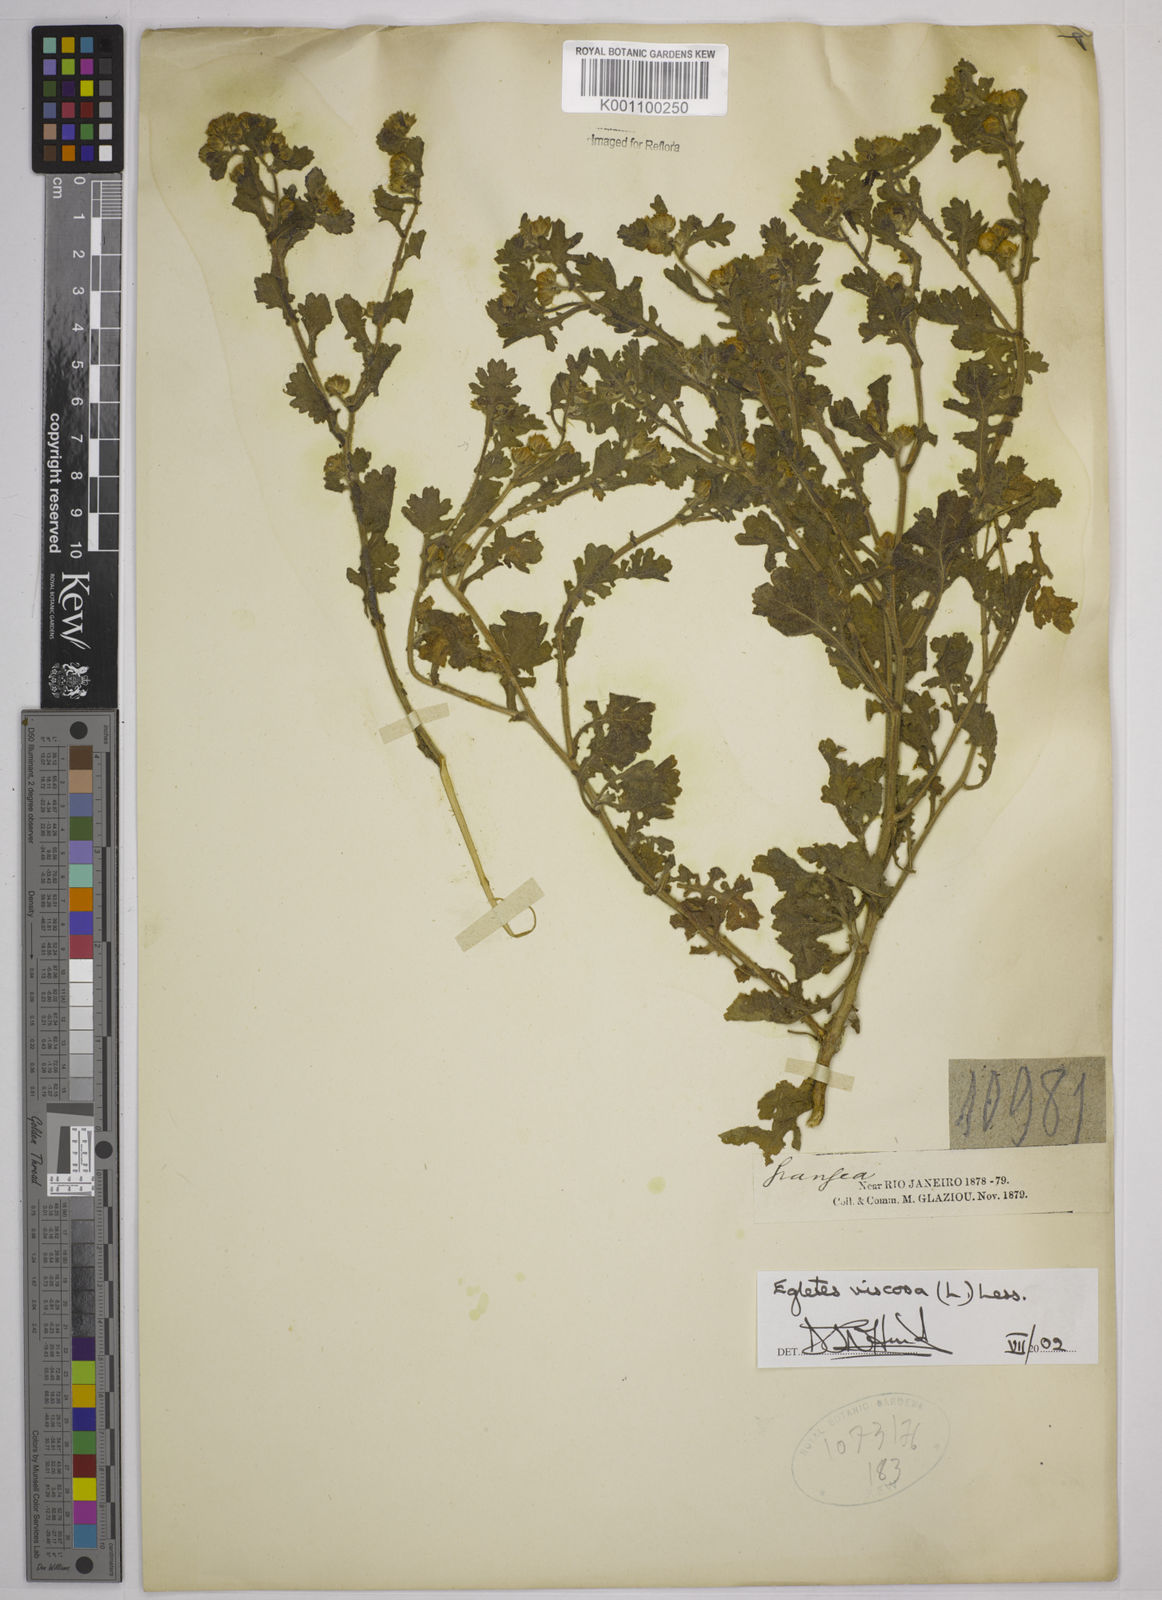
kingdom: Plantae
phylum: Tracheophyta
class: Magnoliopsida
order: Asterales
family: Asteraceae
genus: Egletes
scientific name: Egletes viscosa
